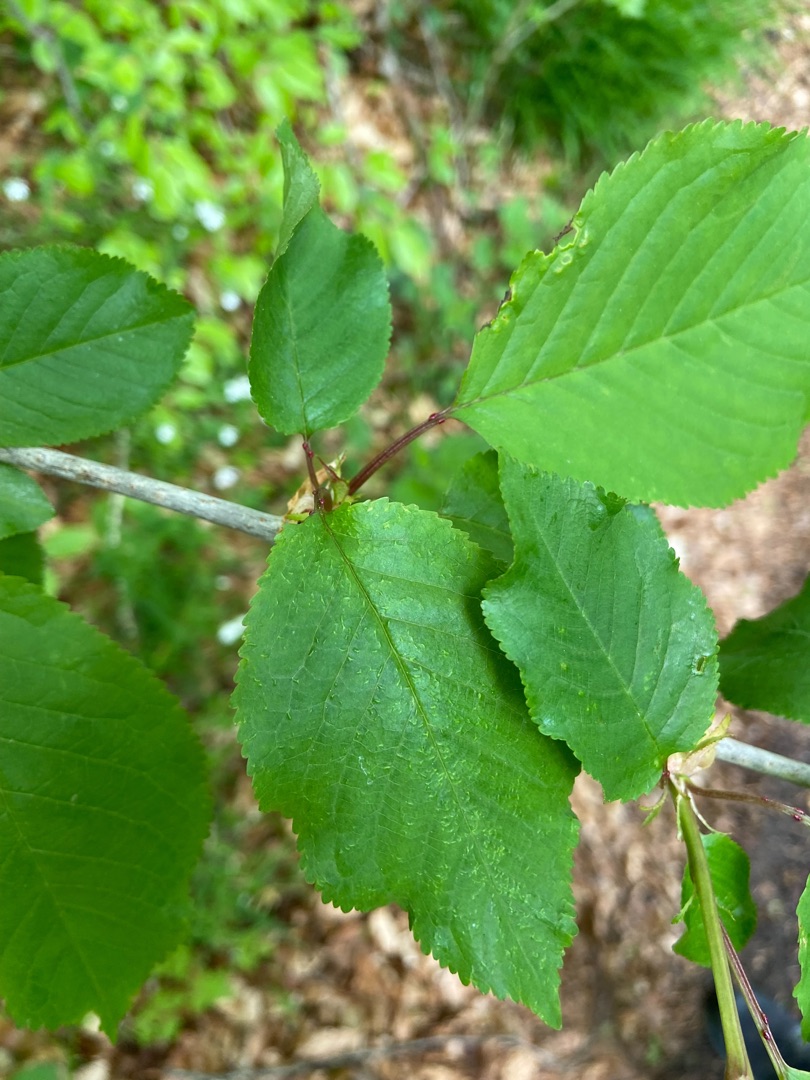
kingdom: Plantae
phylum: Tracheophyta
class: Magnoliopsida
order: Rosales
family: Rosaceae
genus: Prunus
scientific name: Prunus avium
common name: Fugle-kirsebær
